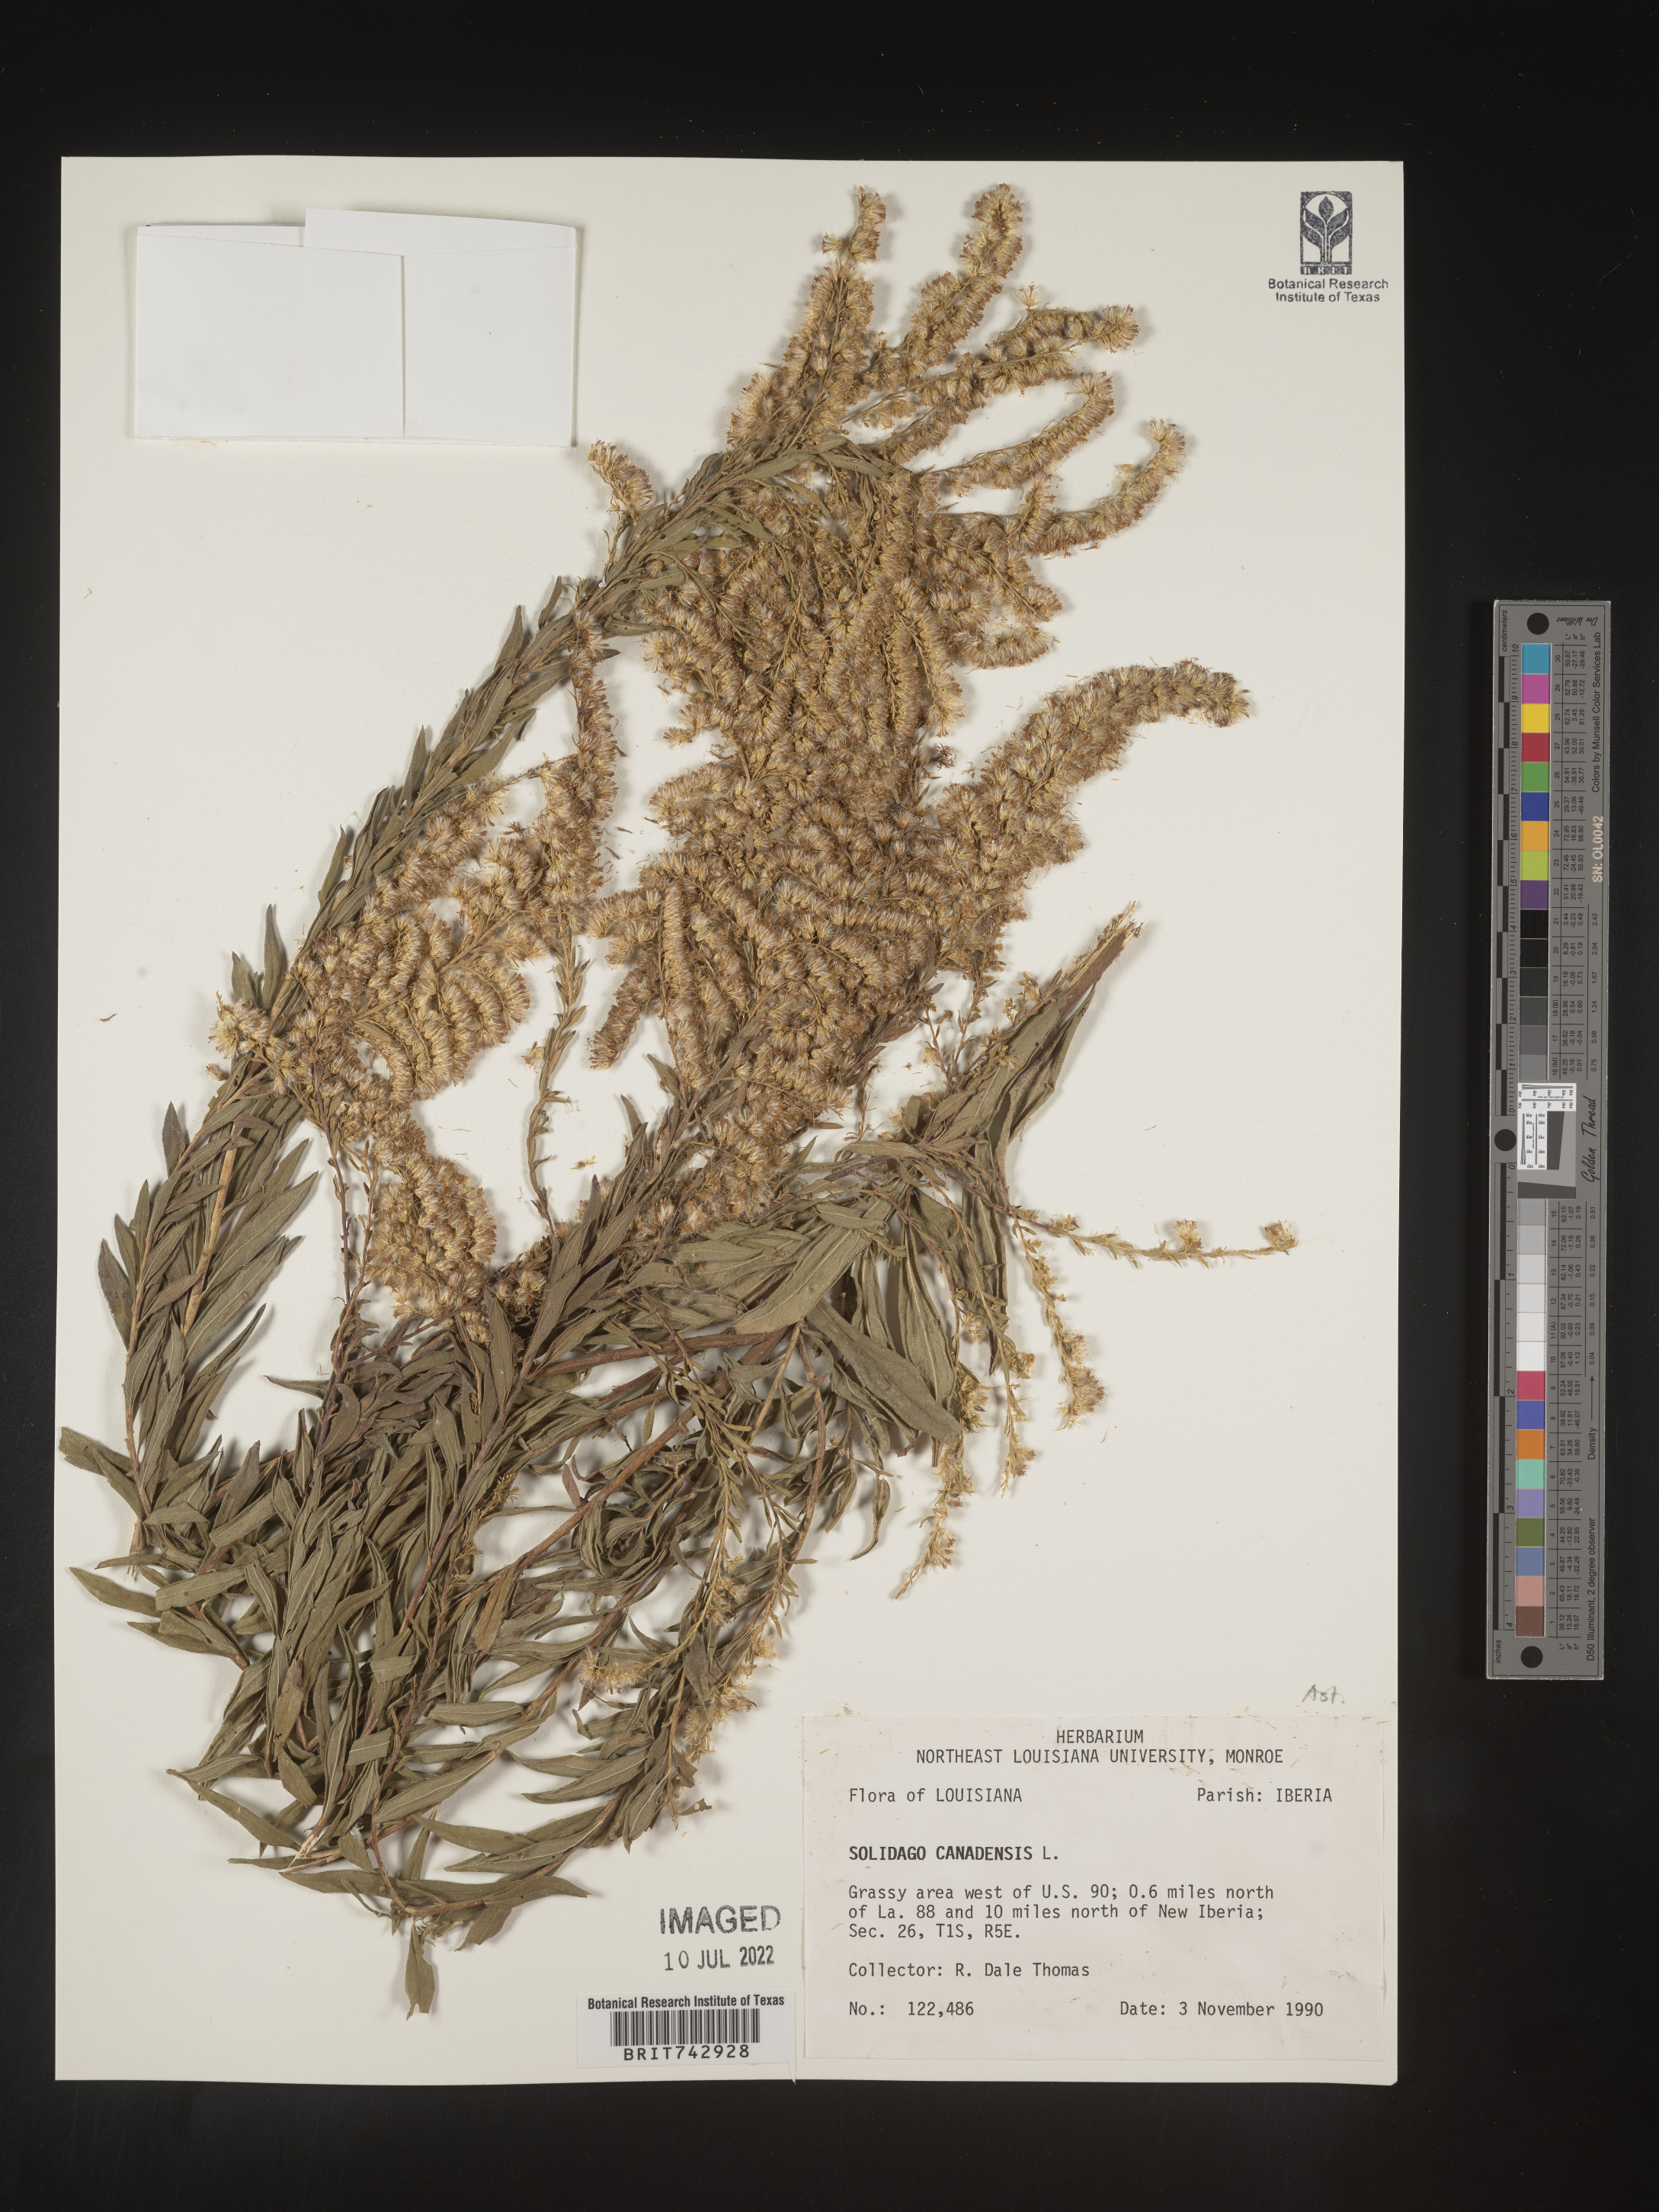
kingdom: Plantae
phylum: Tracheophyta
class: Magnoliopsida
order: Asterales
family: Asteraceae
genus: Solidago
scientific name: Solidago altissima
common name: Late goldenrod
